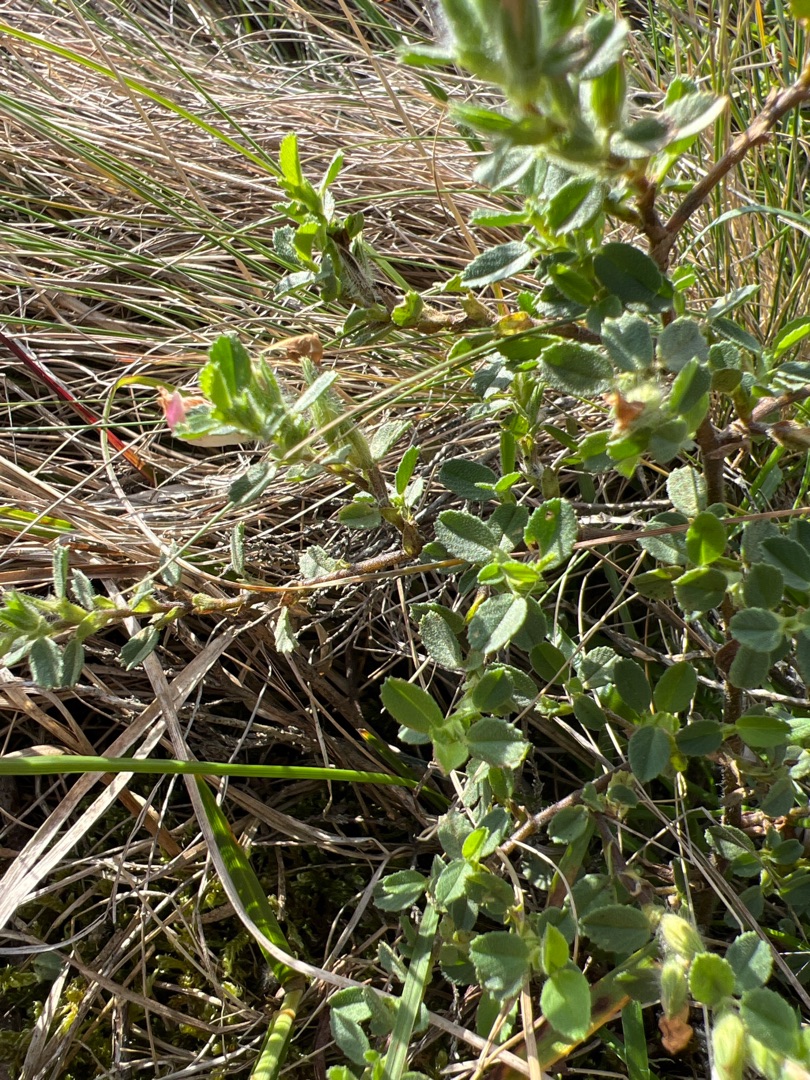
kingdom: Plantae
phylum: Tracheophyta
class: Magnoliopsida
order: Fabales
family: Fabaceae
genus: Ononis
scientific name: Ononis spinosa
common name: Mark-krageklo
